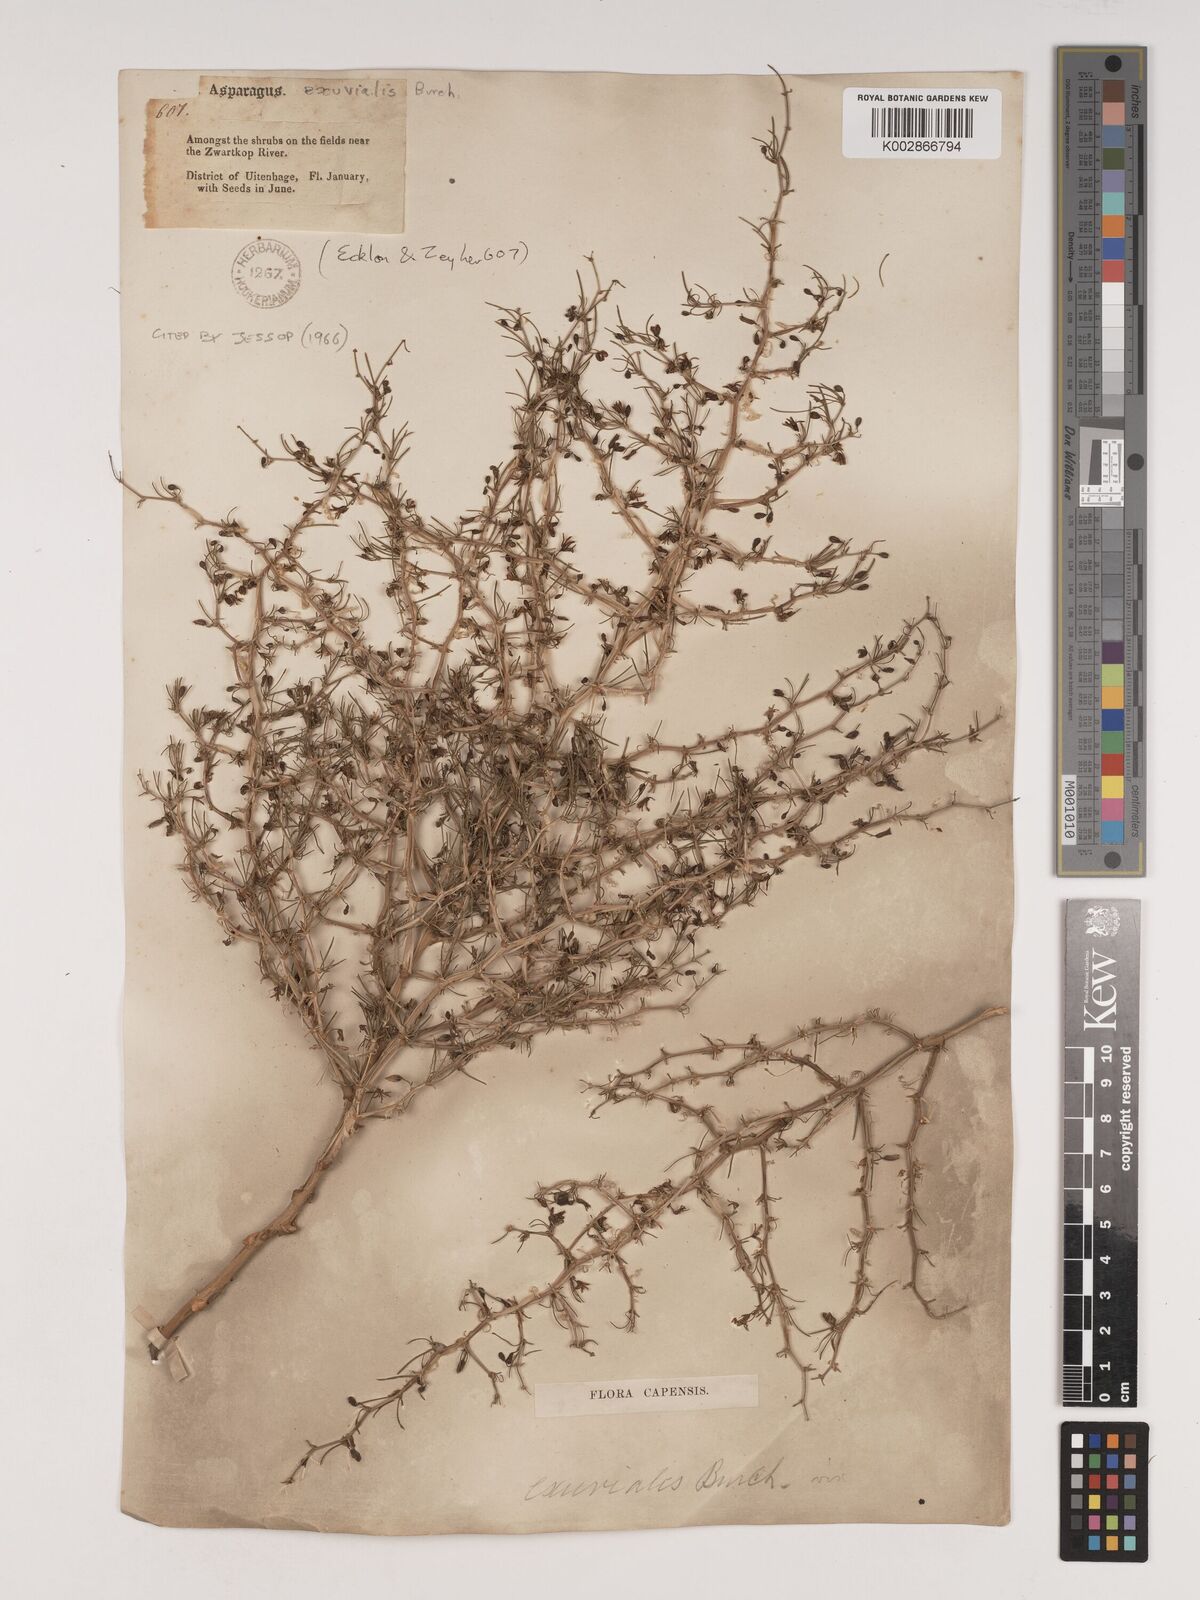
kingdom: Plantae
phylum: Tracheophyta
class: Liliopsida
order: Asparagales
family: Asparagaceae
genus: Asparagus
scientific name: Asparagus exuvialis
